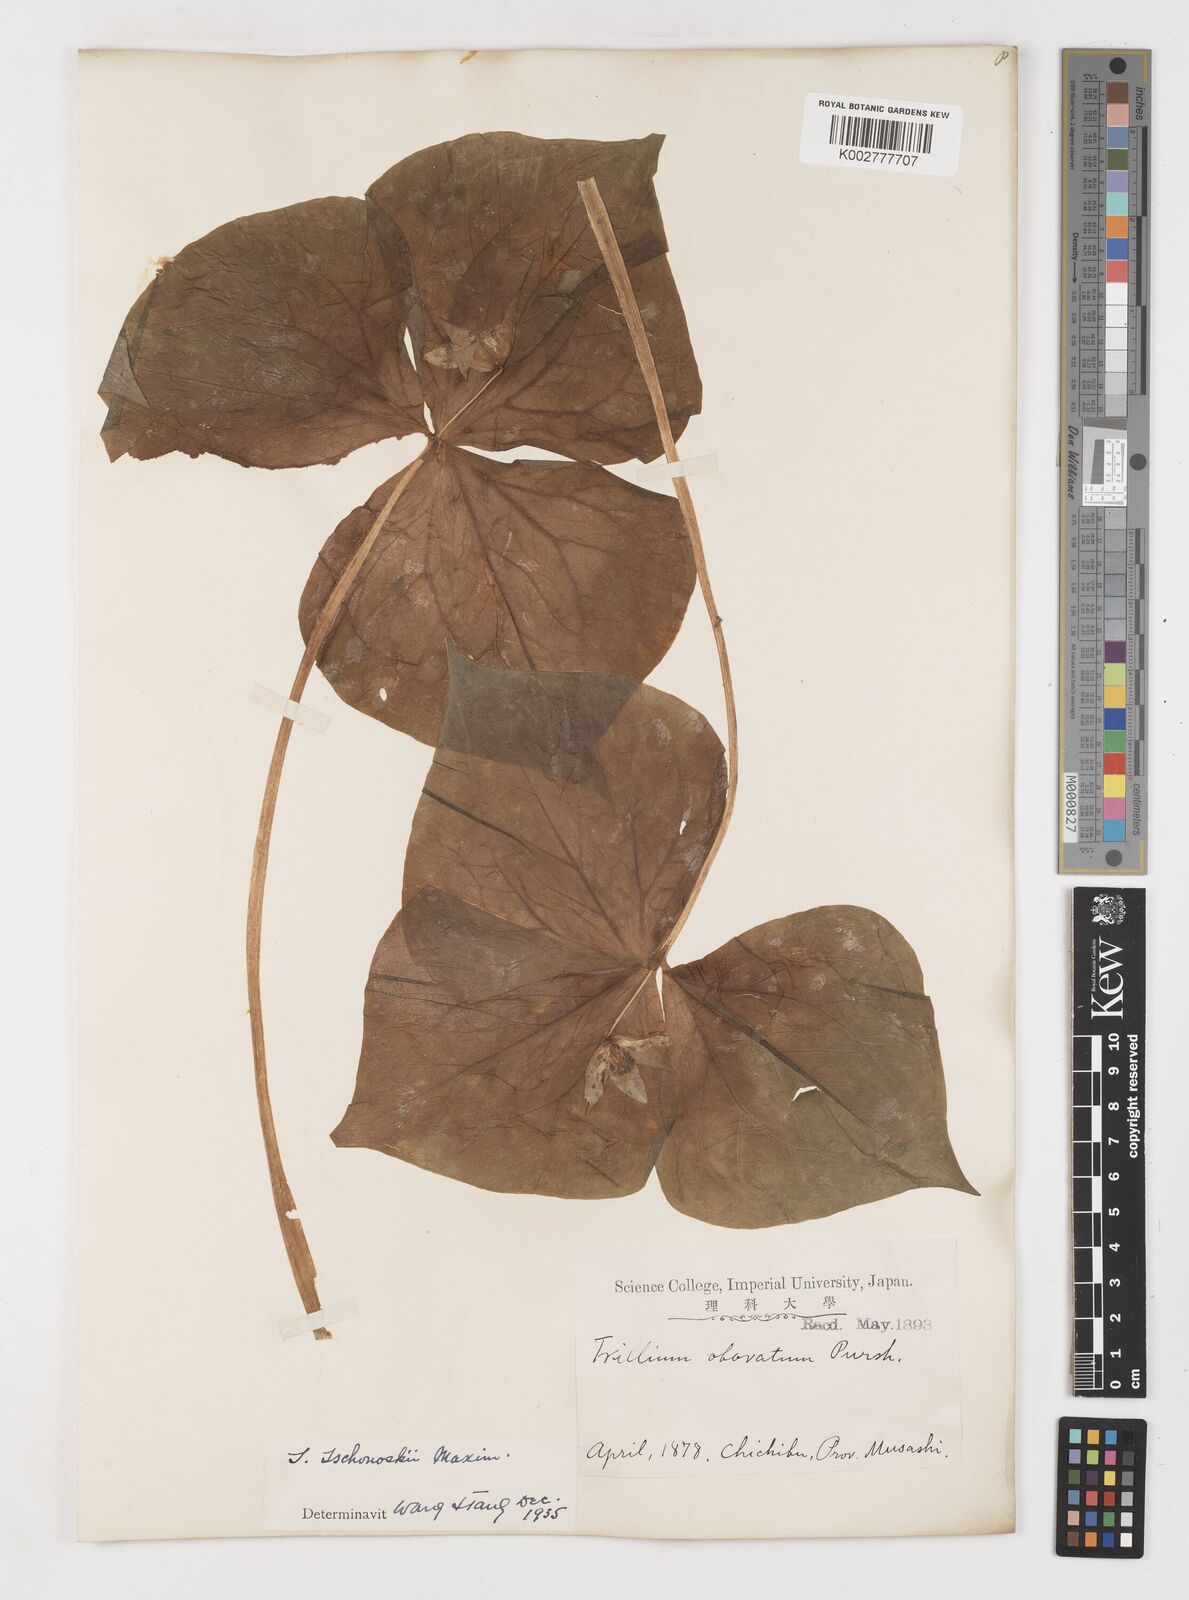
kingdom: Plantae
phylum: Tracheophyta
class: Liliopsida
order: Liliales
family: Melanthiaceae
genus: Trillium
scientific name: Trillium tschonoskii
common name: A pearl on head
